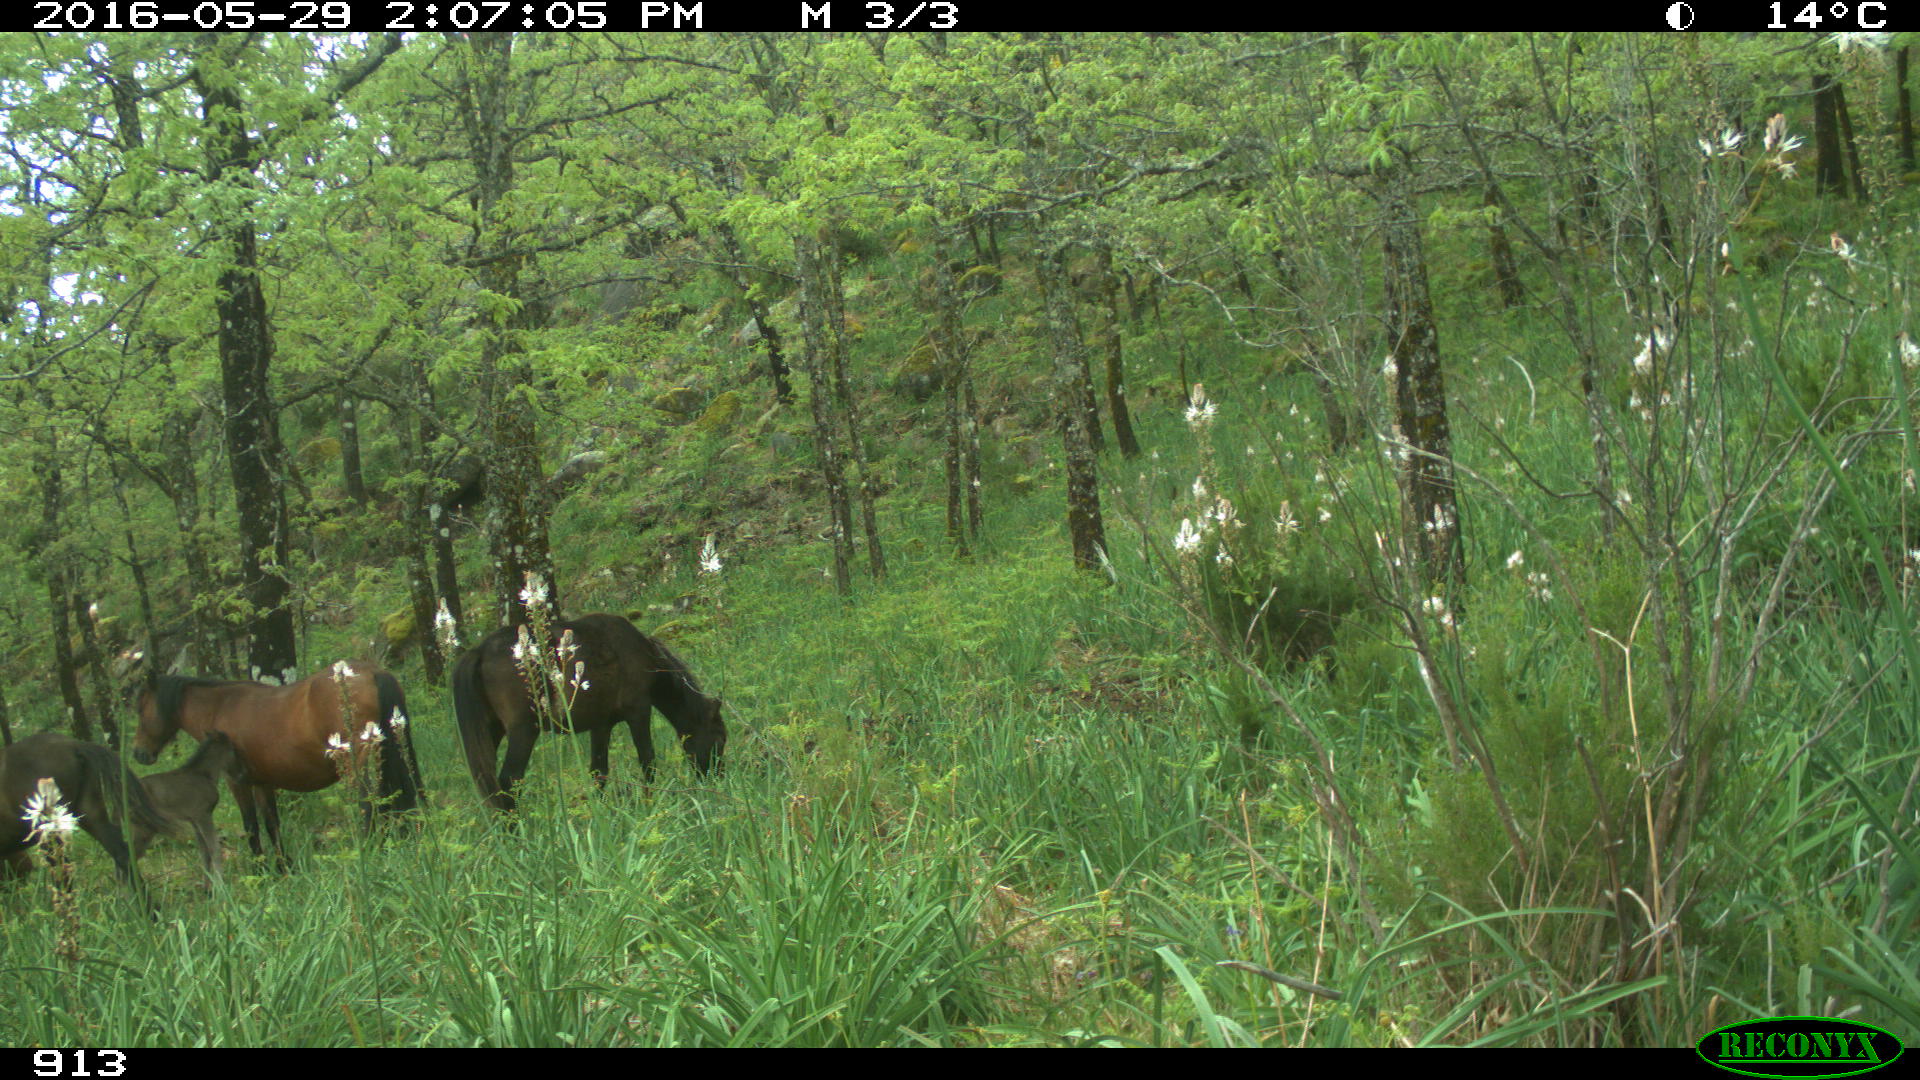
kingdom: Animalia
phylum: Chordata
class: Mammalia
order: Perissodactyla
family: Equidae
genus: Equus
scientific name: Equus caballus
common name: Horse
